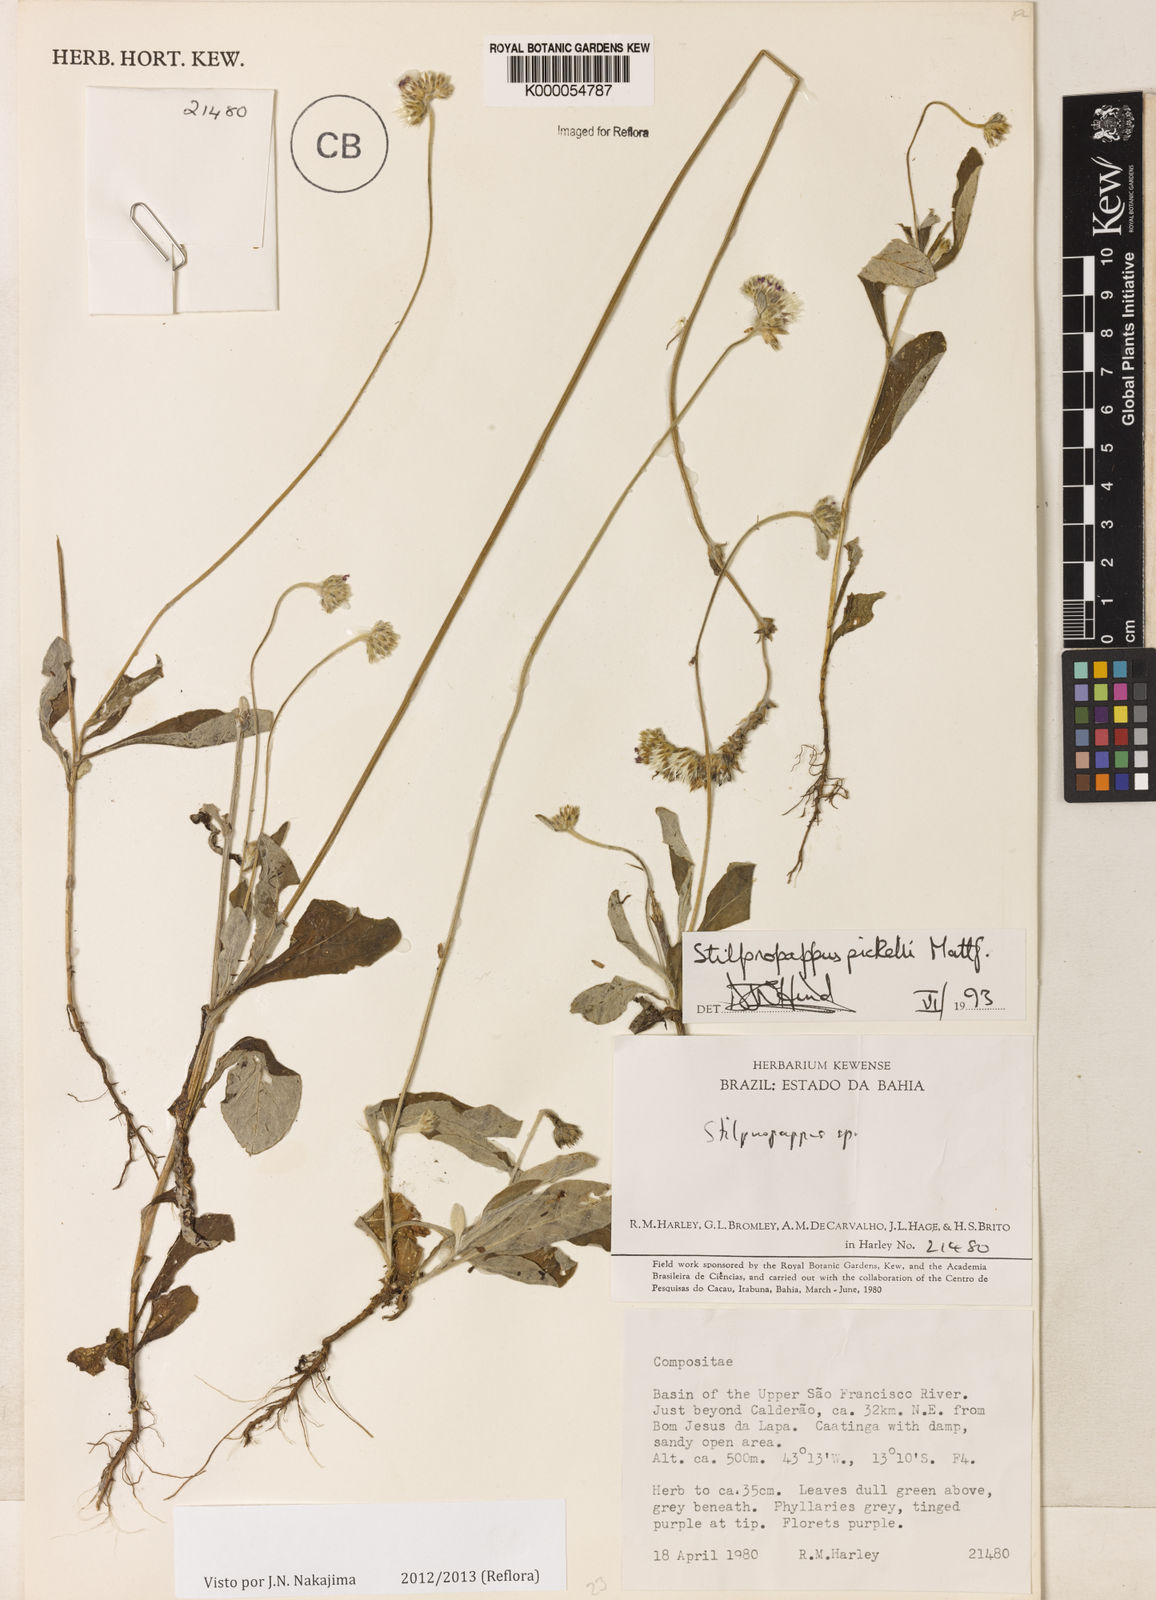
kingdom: Plantae
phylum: Tracheophyta
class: Magnoliopsida
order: Asterales
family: Asteraceae
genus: Stilpnopappus
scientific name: Stilpnopappus pratensis
